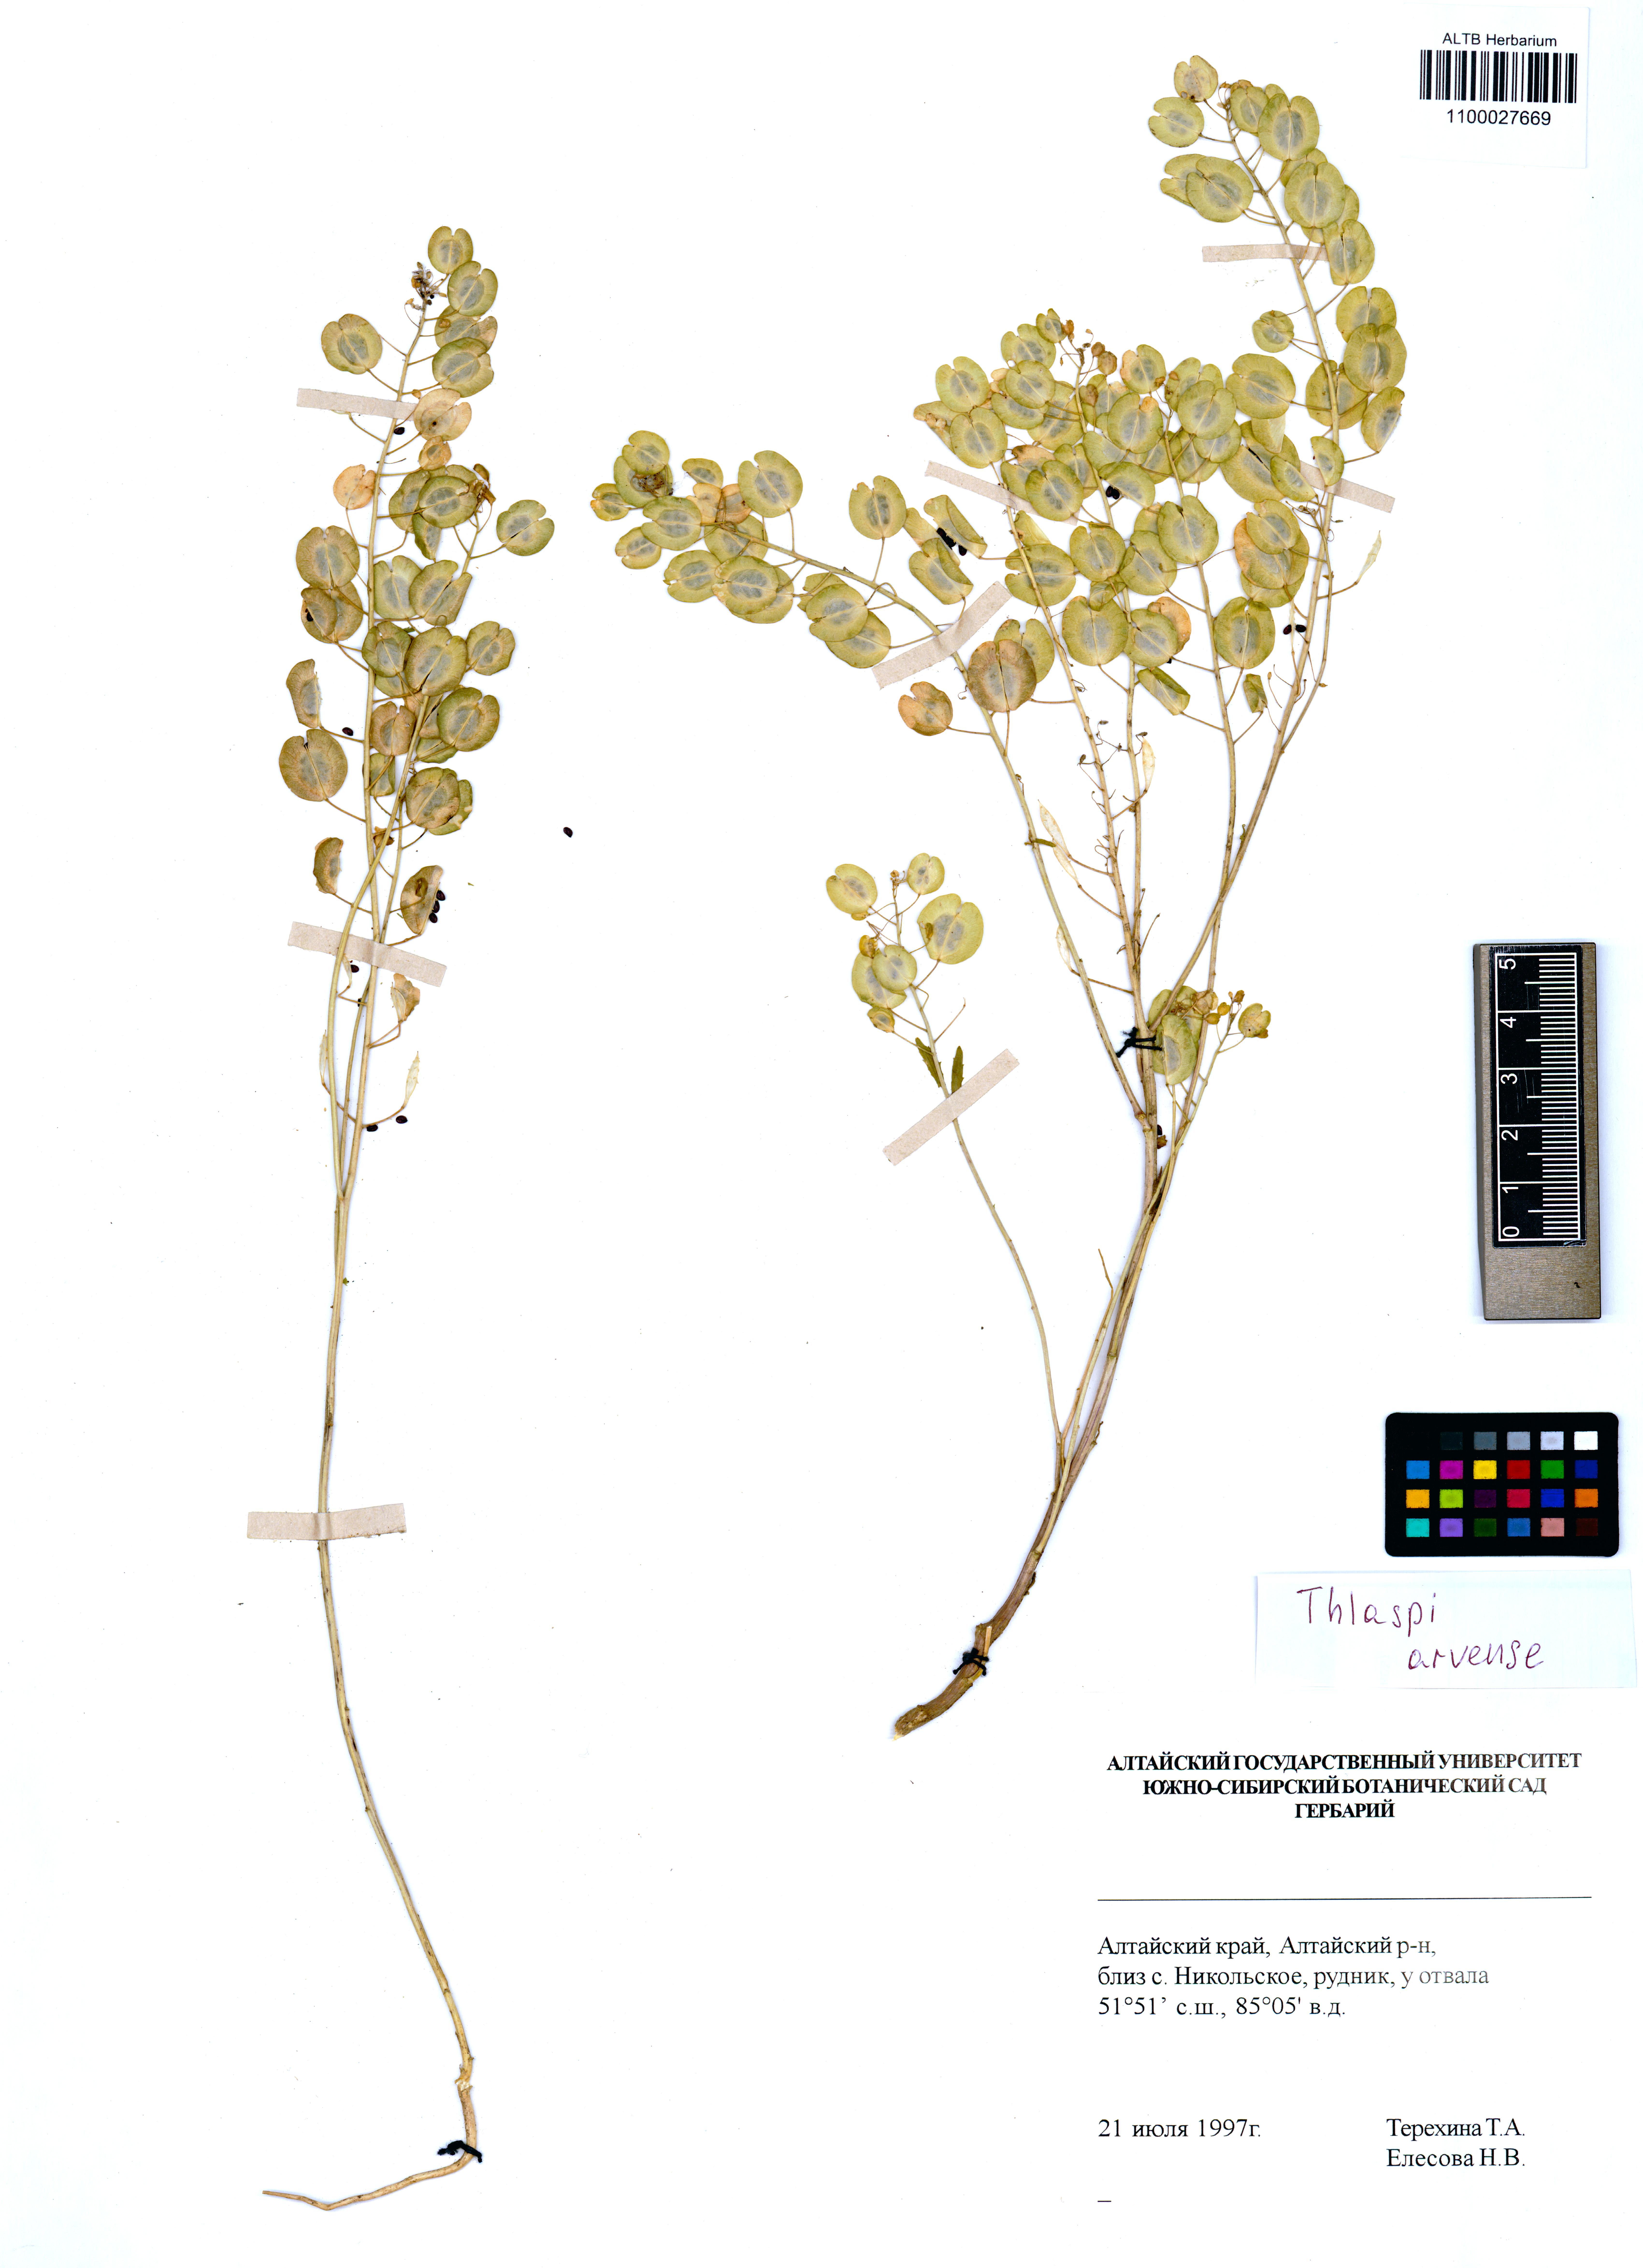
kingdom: Plantae
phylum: Tracheophyta
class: Magnoliopsida
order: Brassicales
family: Brassicaceae
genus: Thlaspi
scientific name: Thlaspi arvense
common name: Field pennycress
